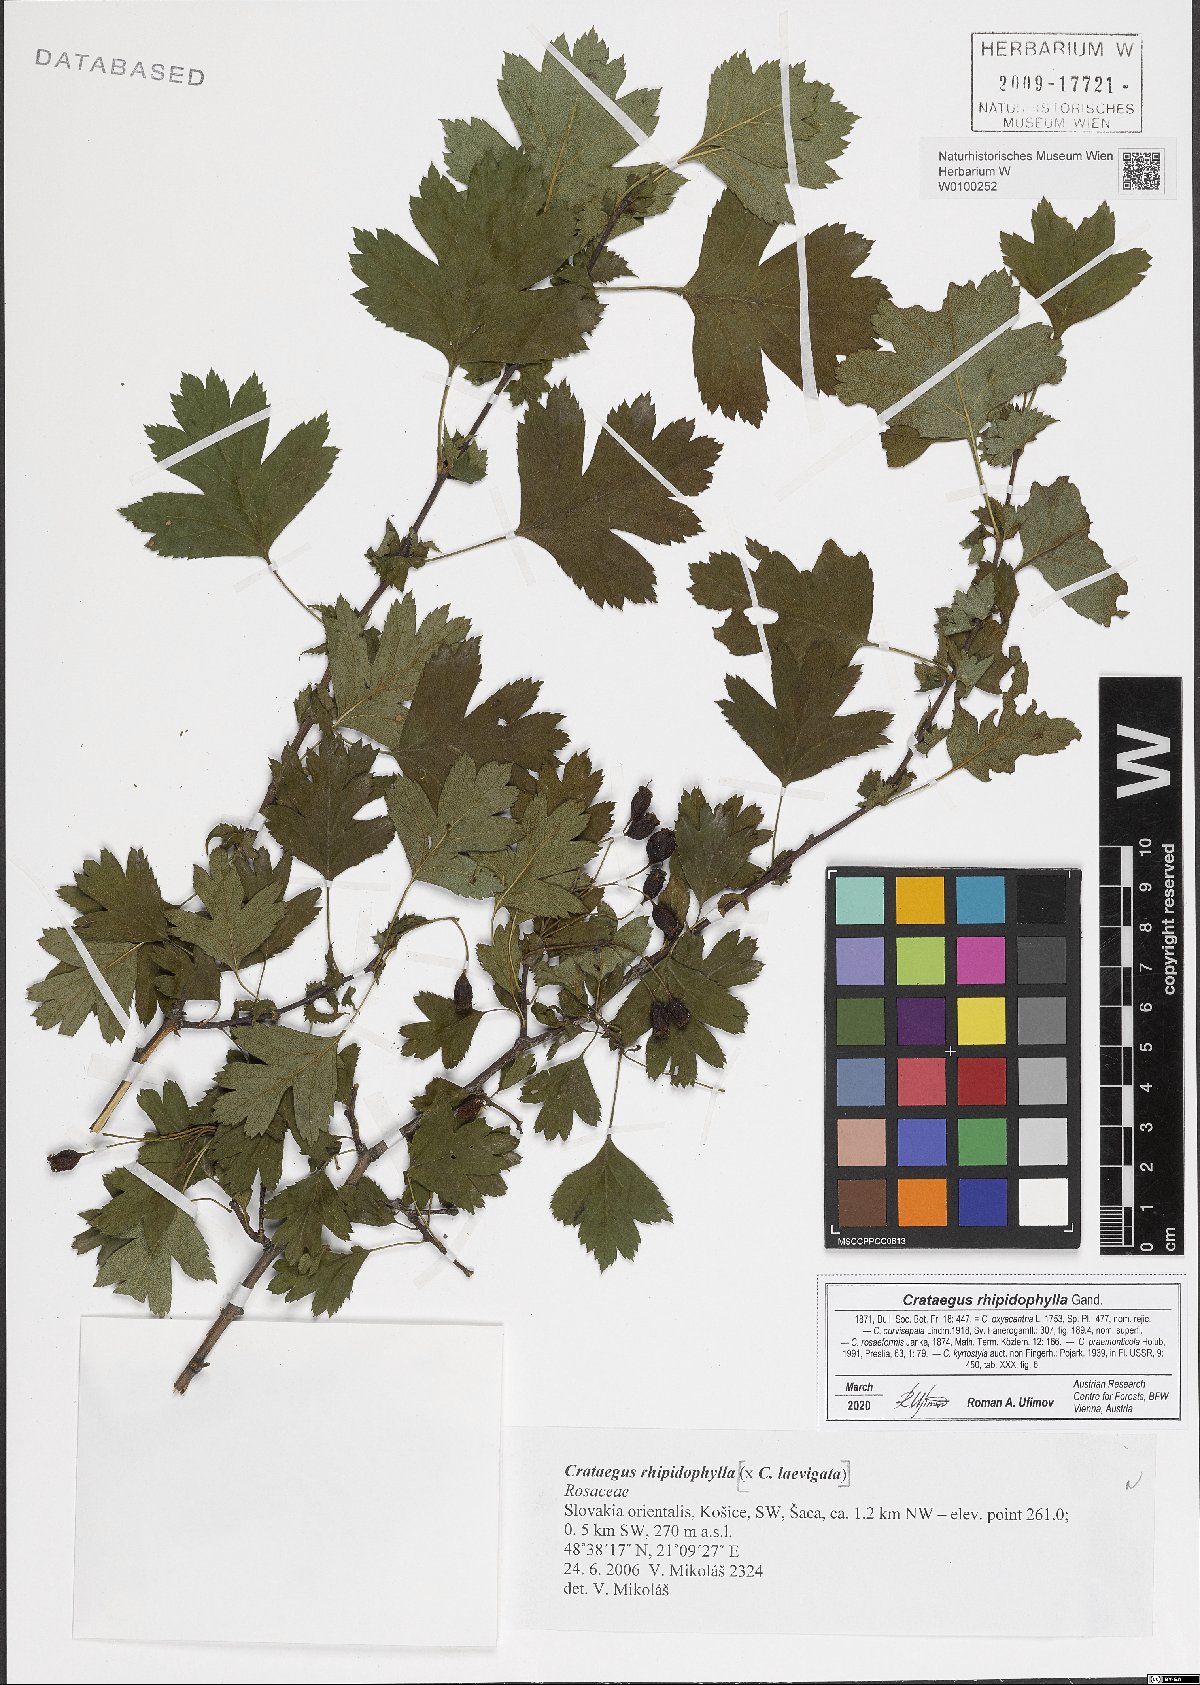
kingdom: Plantae
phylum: Tracheophyta
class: Magnoliopsida
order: Rosales
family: Rosaceae
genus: Crataegus
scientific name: Crataegus rhipidophylla
